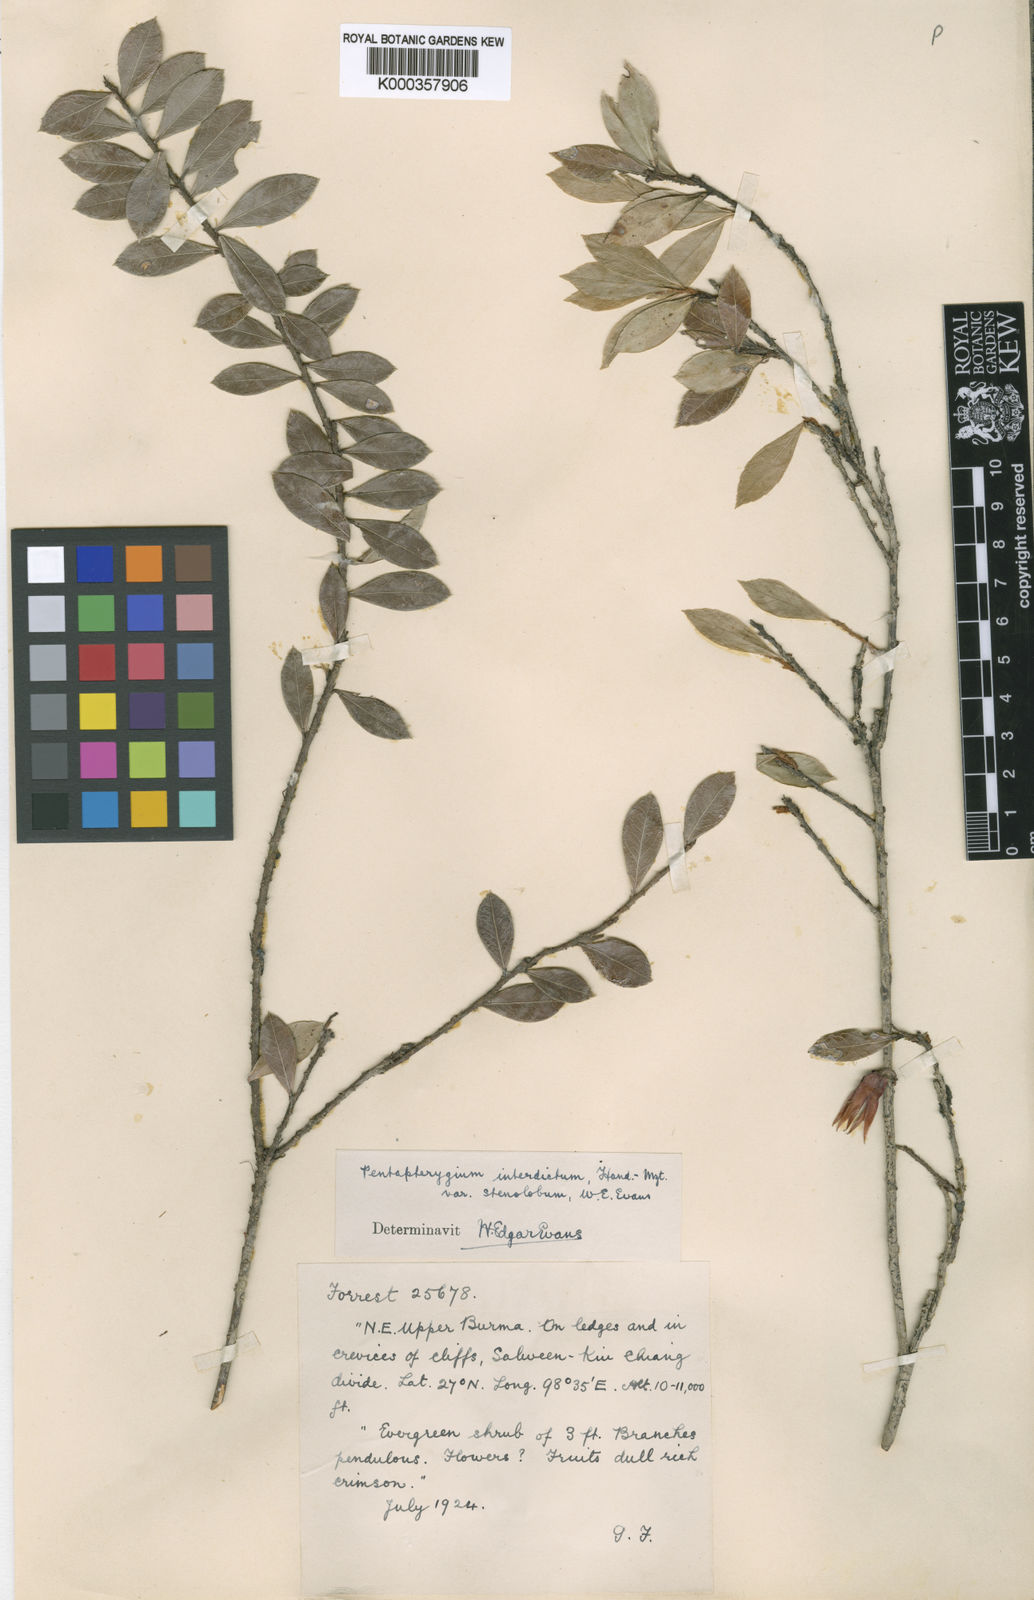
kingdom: Plantae
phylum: Tracheophyta
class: Magnoliopsida
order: Ericales
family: Ericaceae
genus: Agapetes
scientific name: Agapetes interdicta
